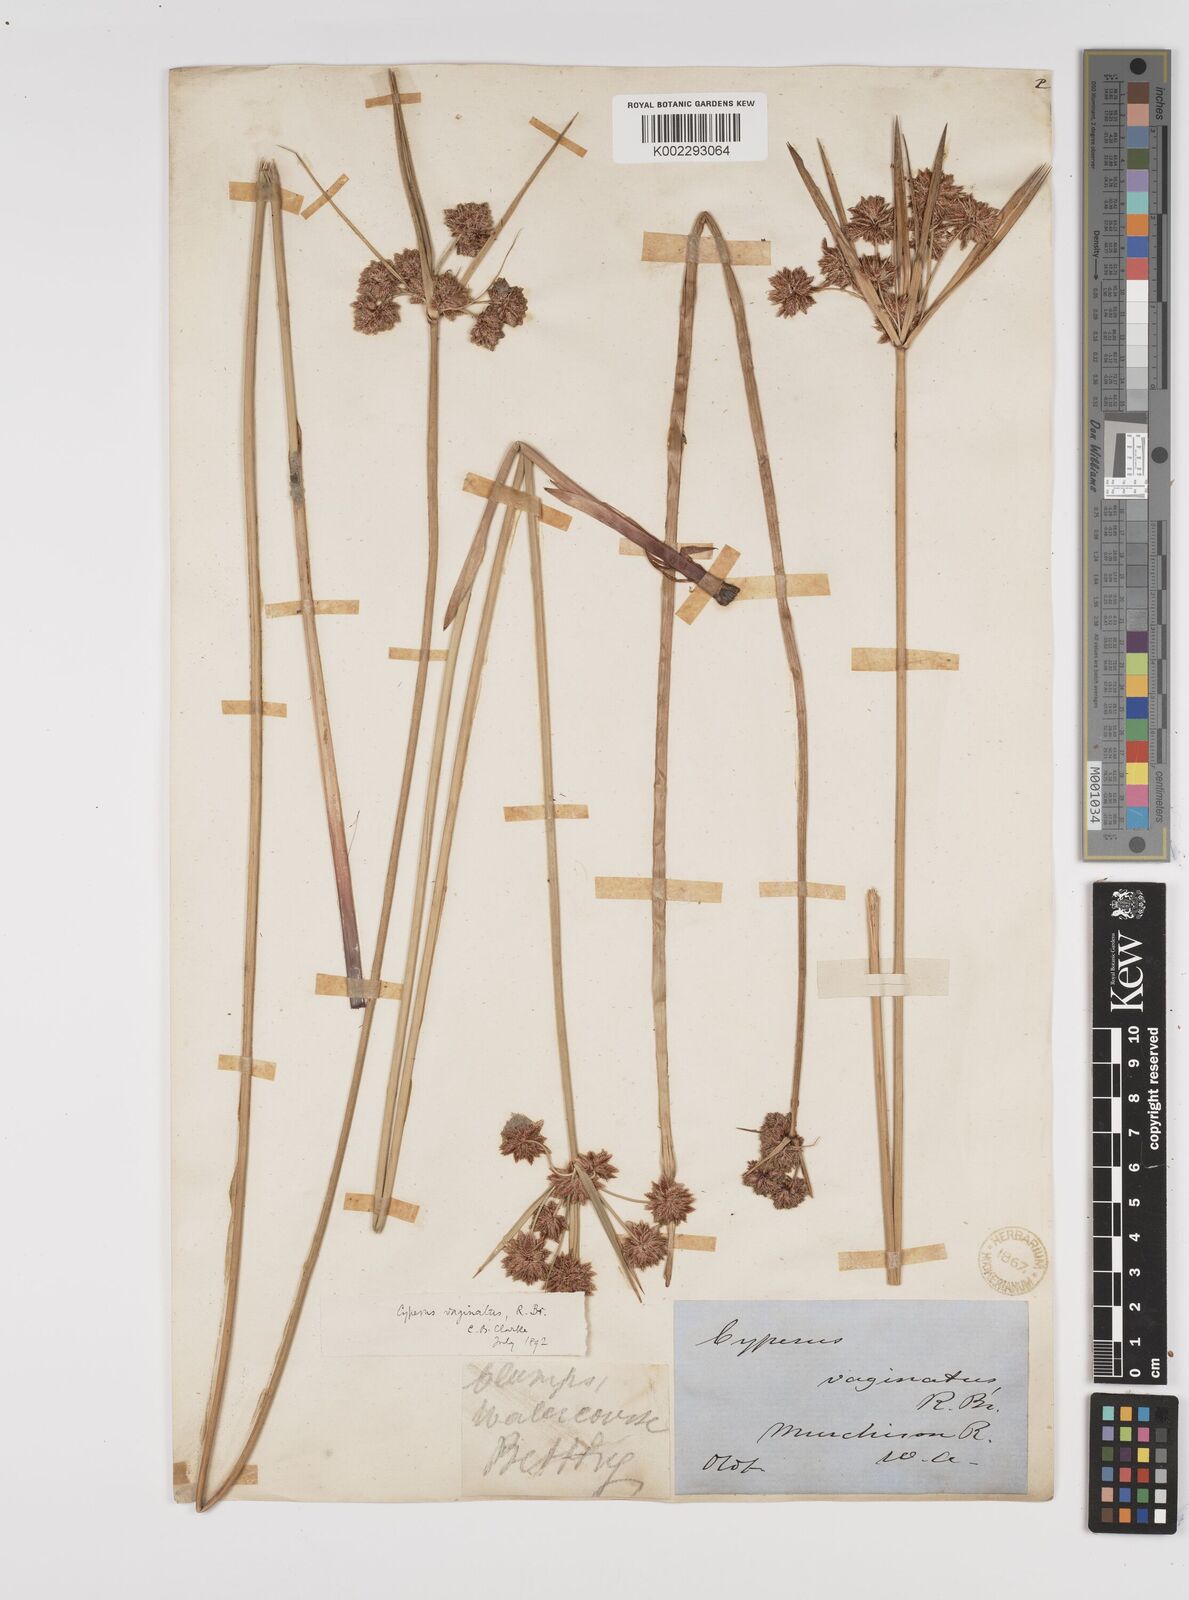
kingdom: Plantae
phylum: Tracheophyta
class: Liliopsida
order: Poales
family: Cyperaceae
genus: Cyperus
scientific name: Cyperus vaginatus
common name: Stiff-leaved flat-sedge
